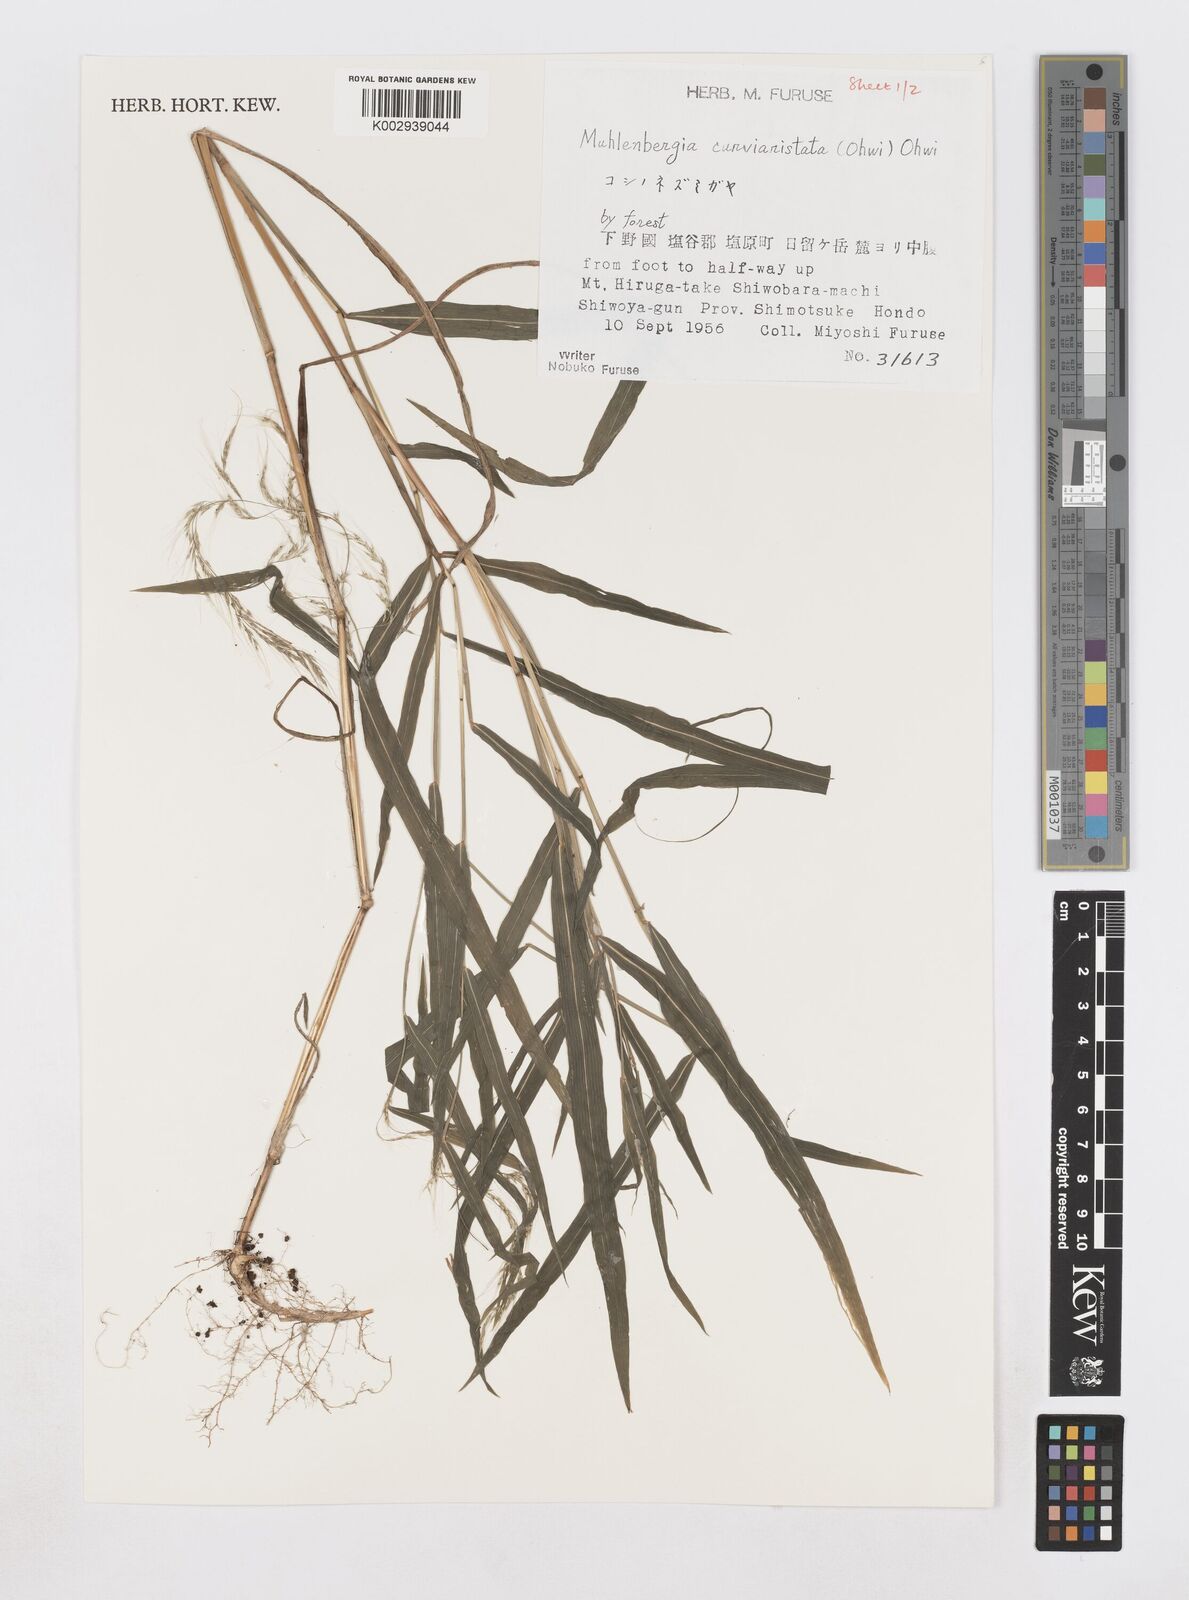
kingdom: Plantae
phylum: Tracheophyta
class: Liliopsida
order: Poales
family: Poaceae
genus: Muhlenbergia
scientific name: Muhlenbergia curviaristata
